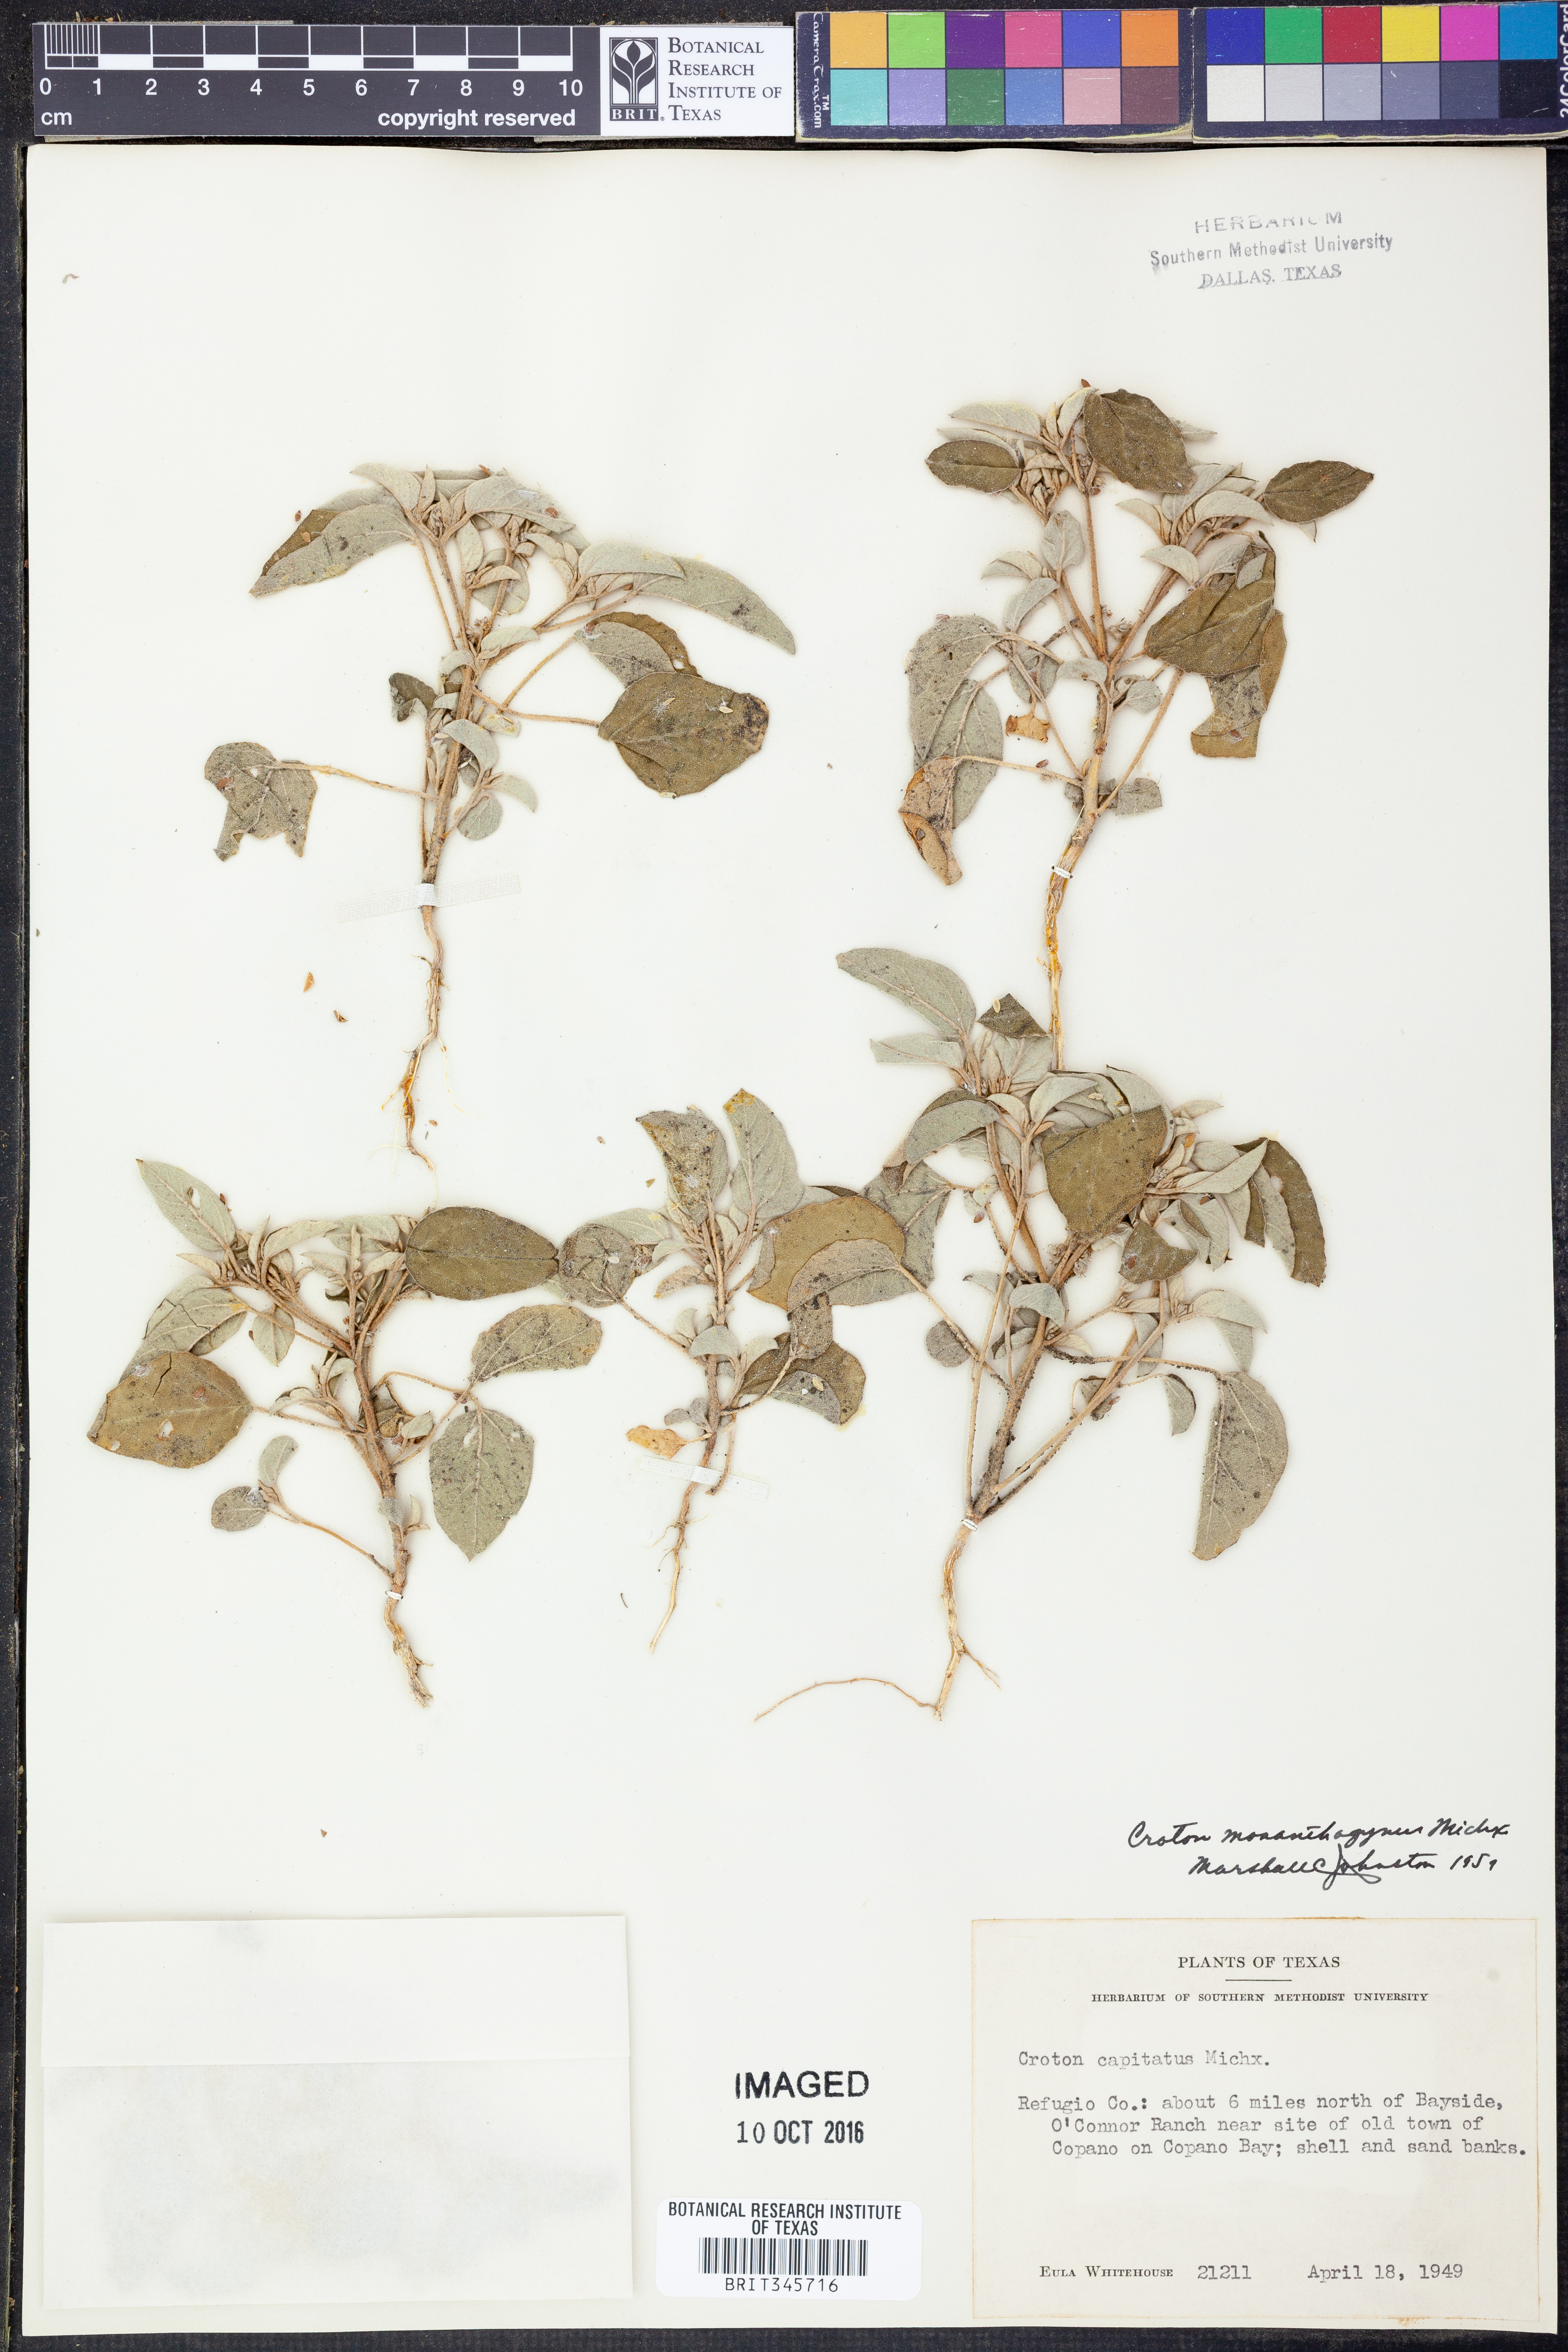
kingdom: Plantae
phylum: Tracheophyta
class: Magnoliopsida
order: Malpighiales
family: Euphorbiaceae
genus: Croton
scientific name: Croton monanthogynus
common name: One-seed croton
